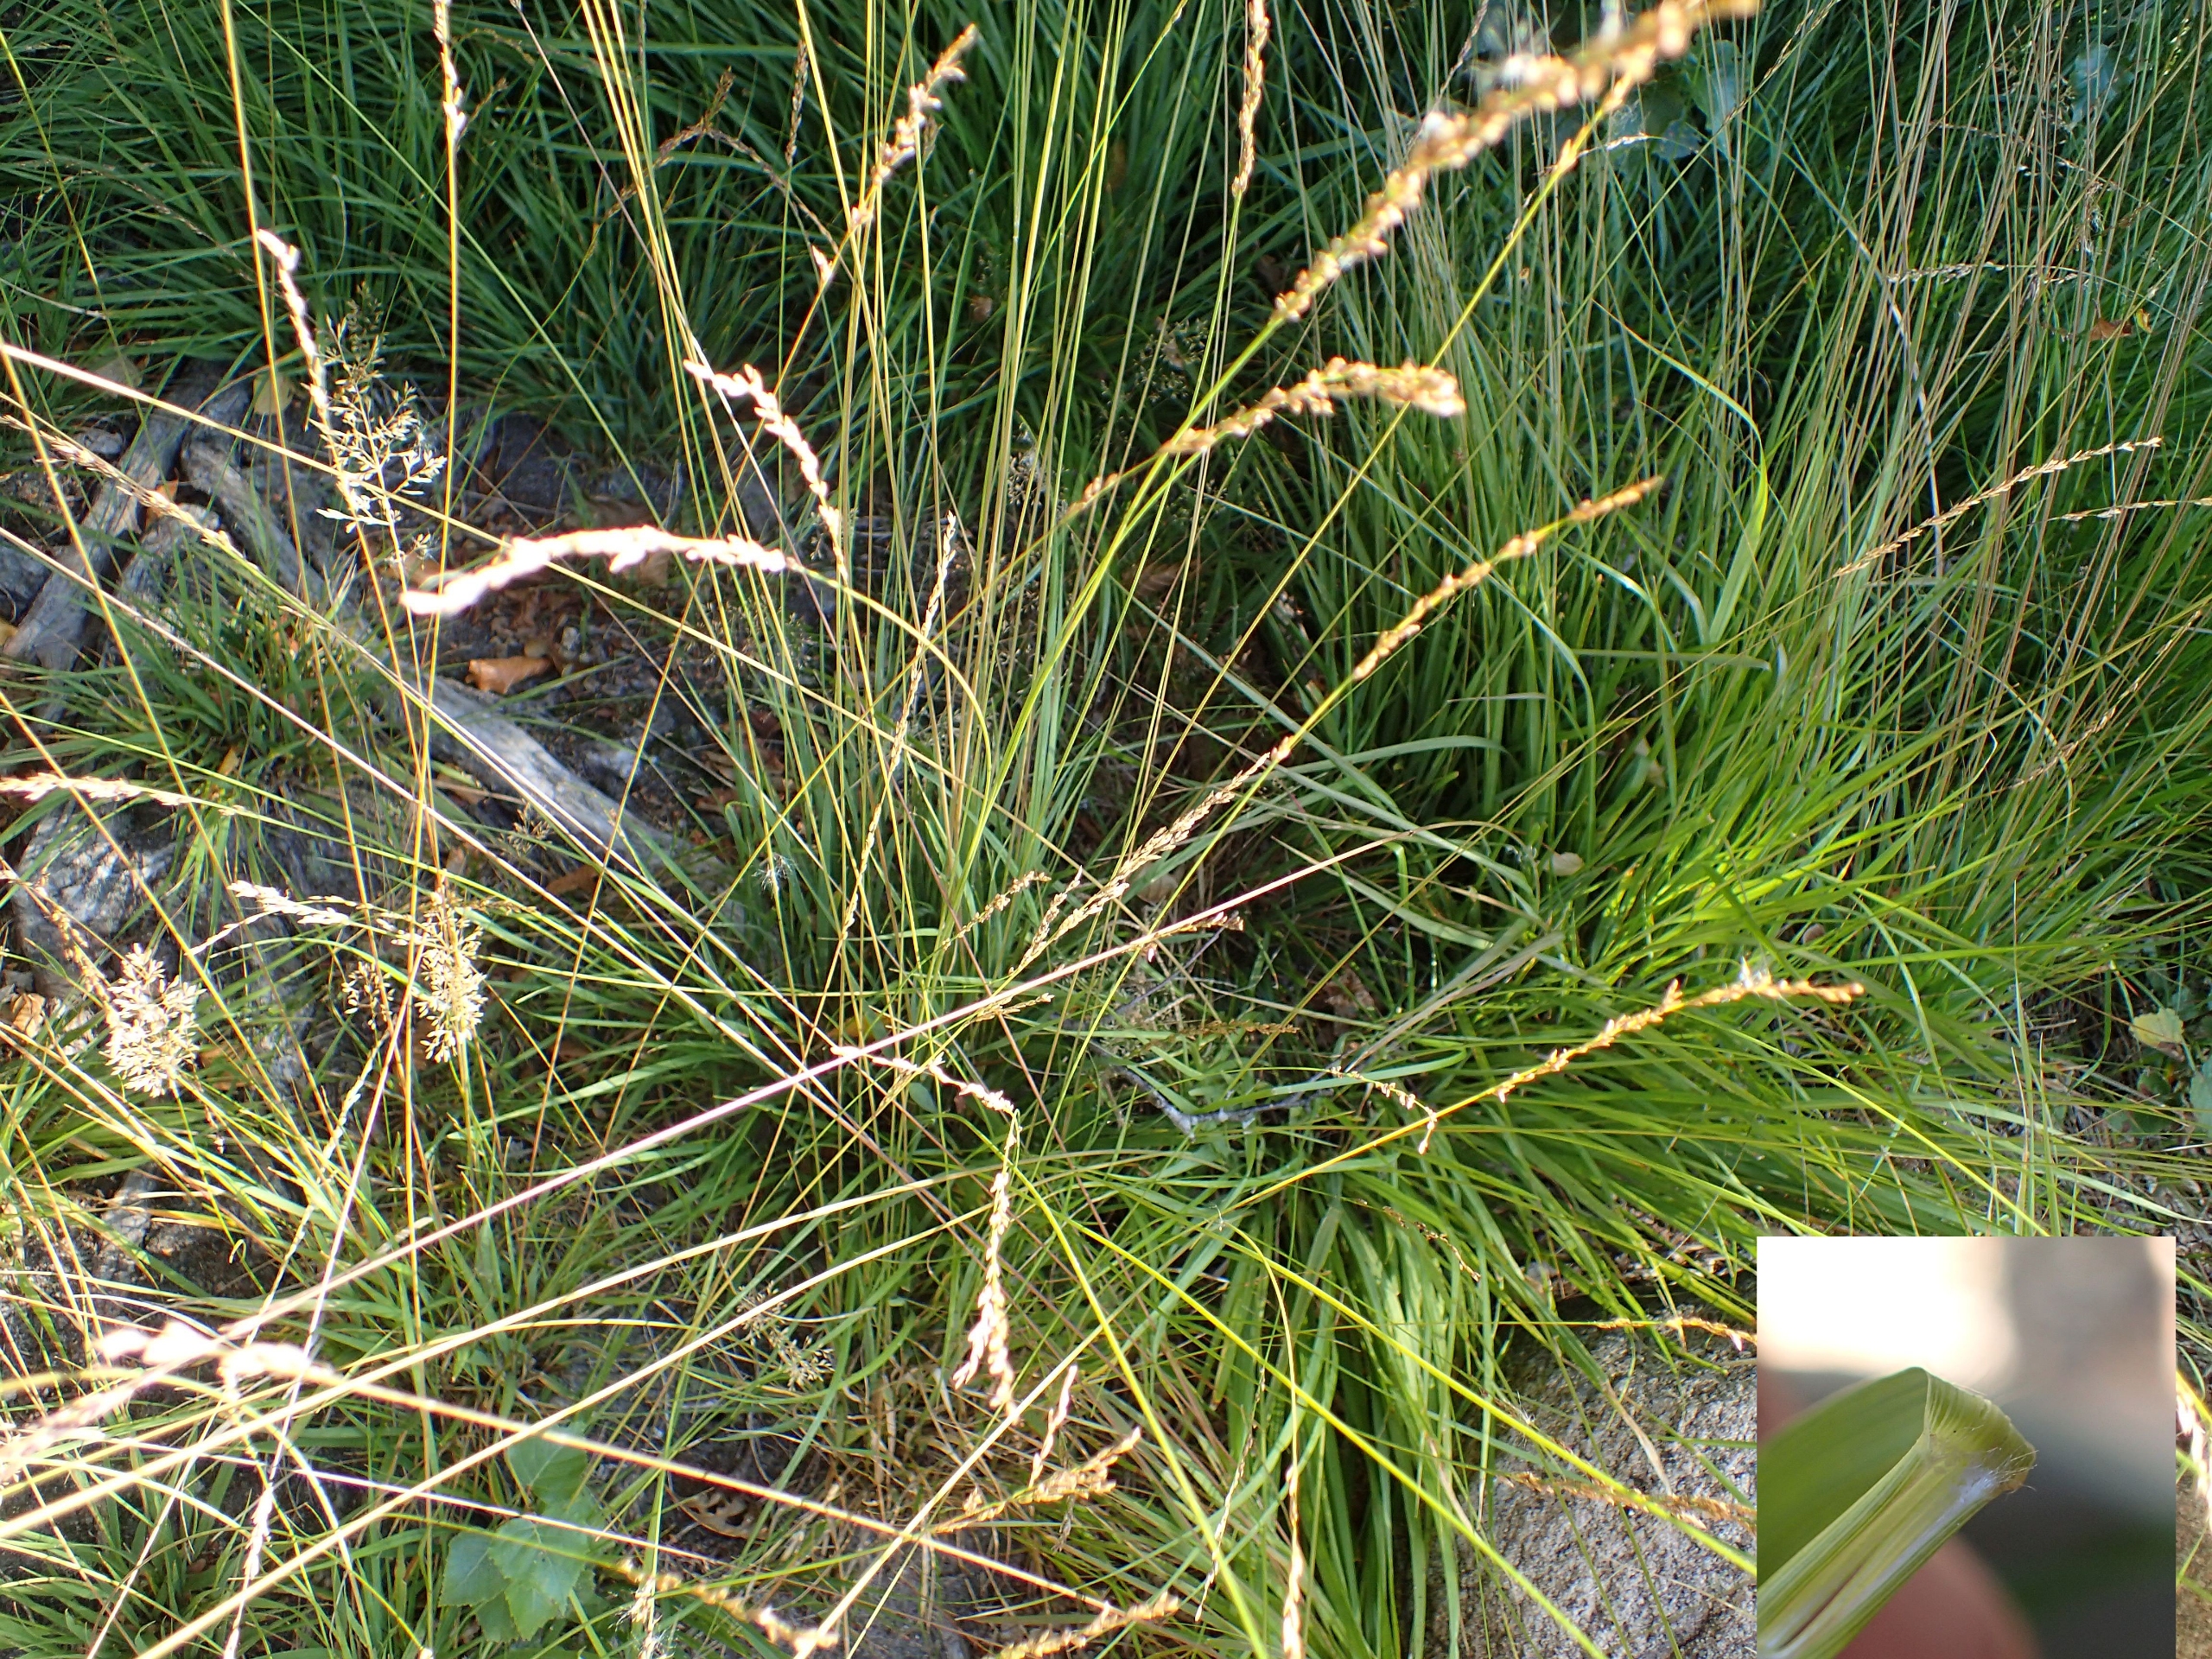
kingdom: Plantae
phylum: Tracheophyta
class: Liliopsida
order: Poales
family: Poaceae
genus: Molinia
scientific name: Molinia caerulea
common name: Blåtop
